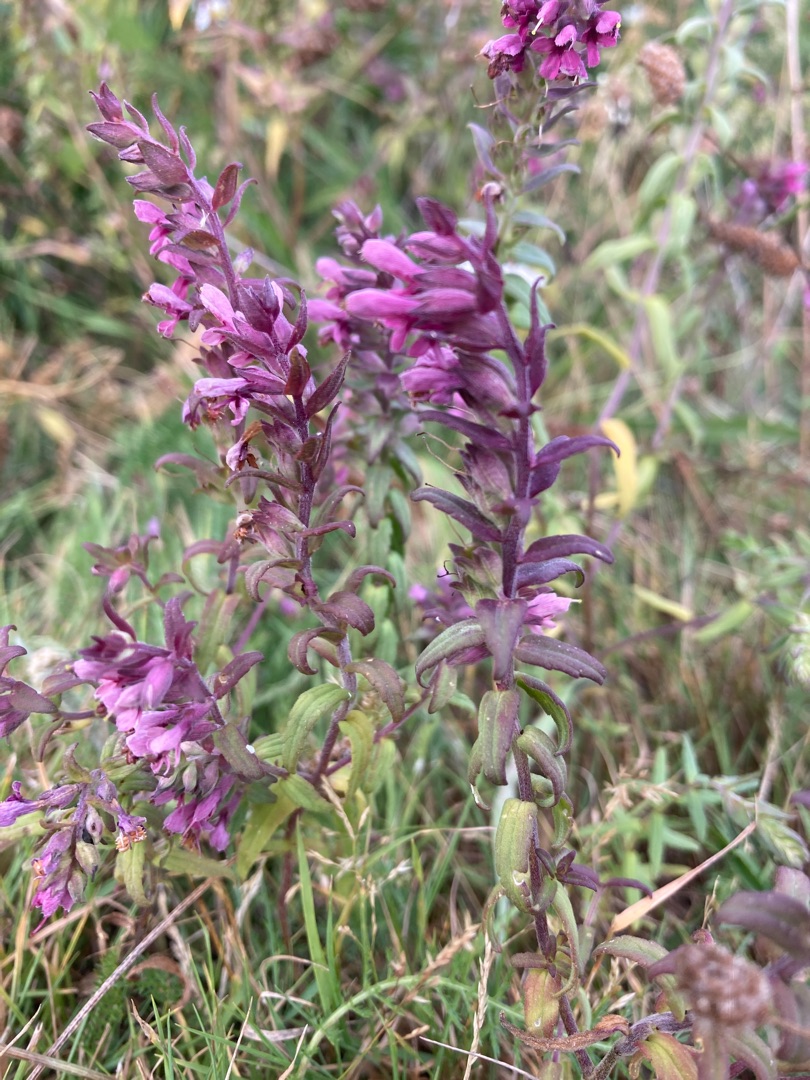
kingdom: Plantae
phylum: Tracheophyta
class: Magnoliopsida
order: Lamiales
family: Orobanchaceae
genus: Odontites
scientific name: Odontites vulgaris
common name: Høst-rødtop
